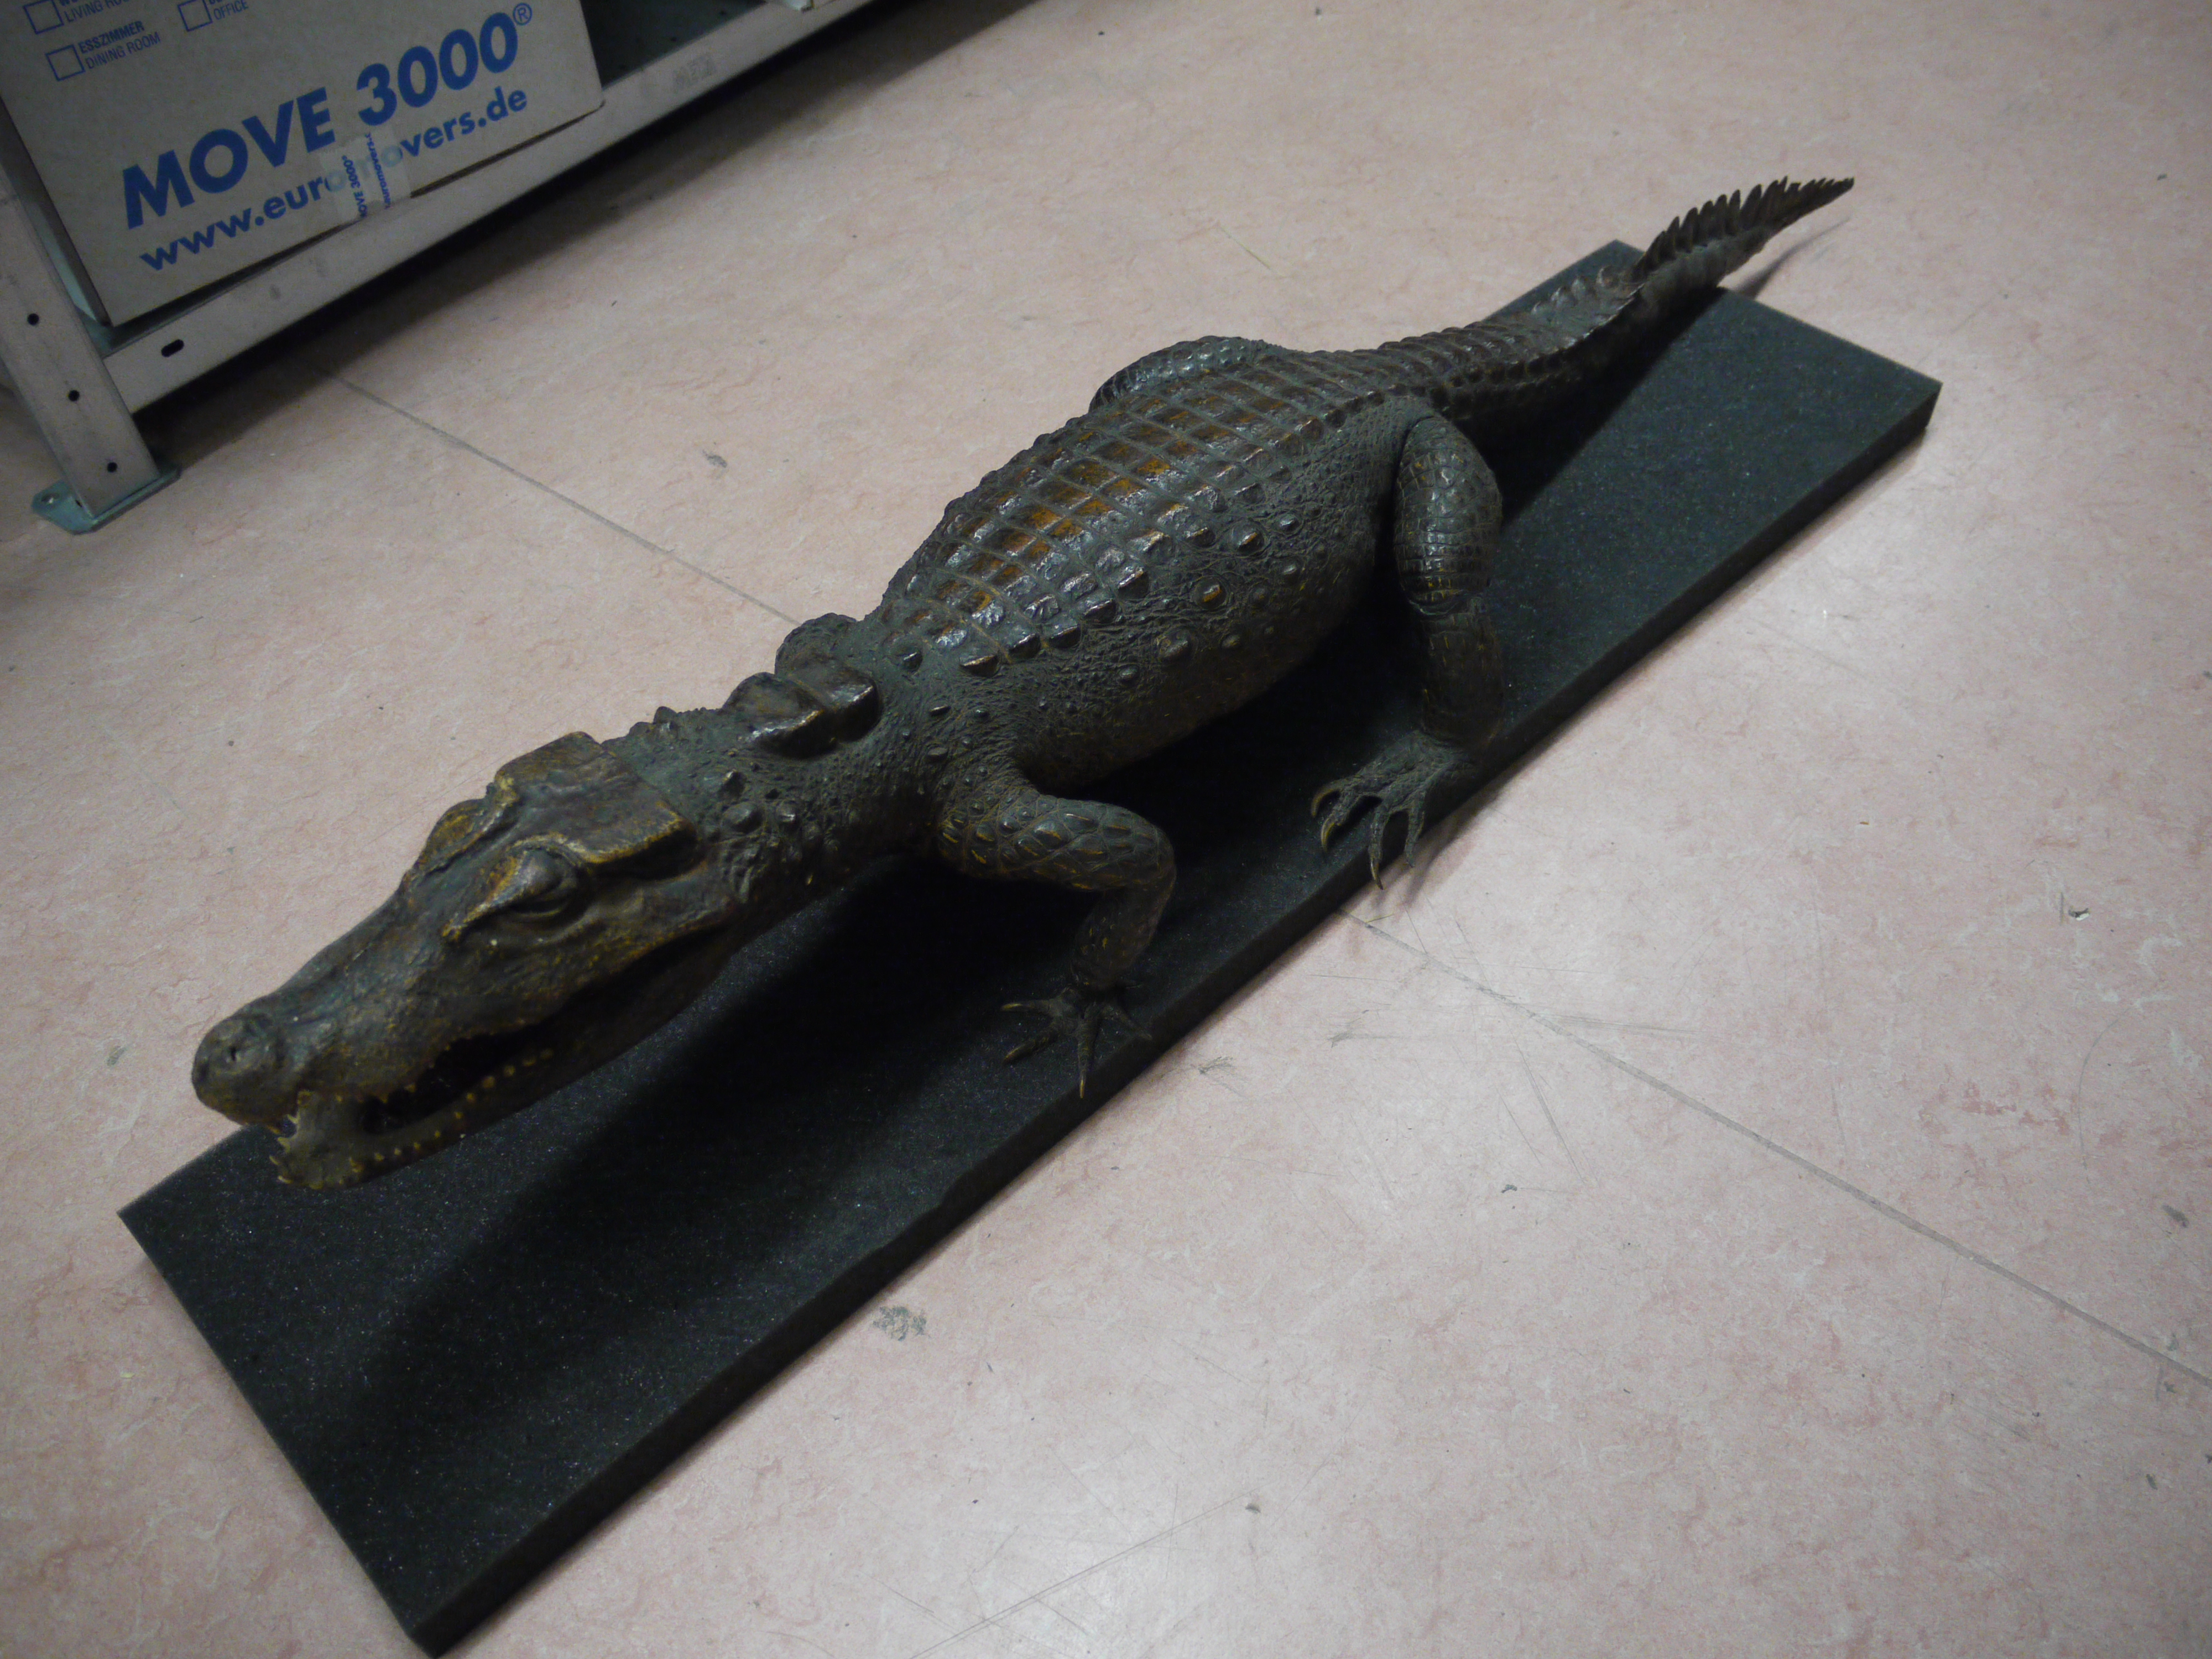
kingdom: Animalia
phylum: Chordata
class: Crocodylia
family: Crocodylidae
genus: Osteolaemus
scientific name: Osteolaemus tetraspis
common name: West african dwarf crocodile
